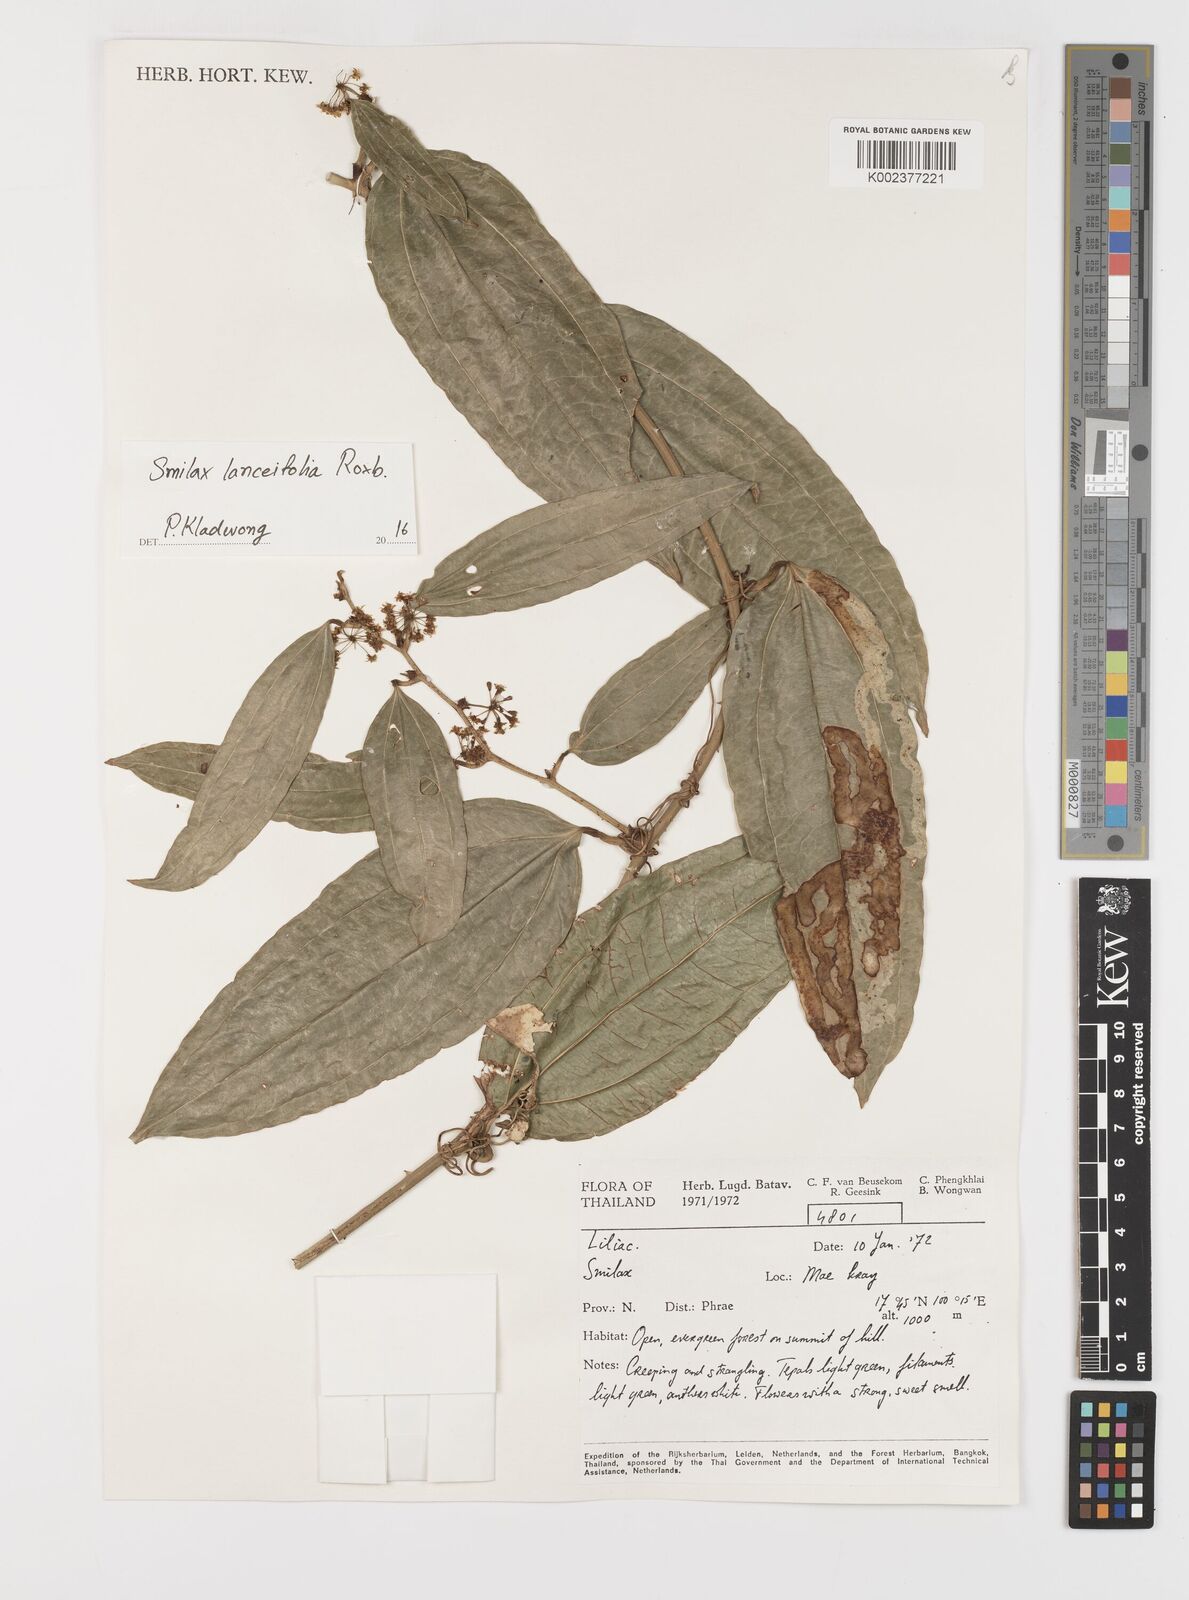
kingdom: Plantae
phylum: Tracheophyta
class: Liliopsida
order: Liliales
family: Smilacaceae
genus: Smilax
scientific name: Smilax lanceifolia
